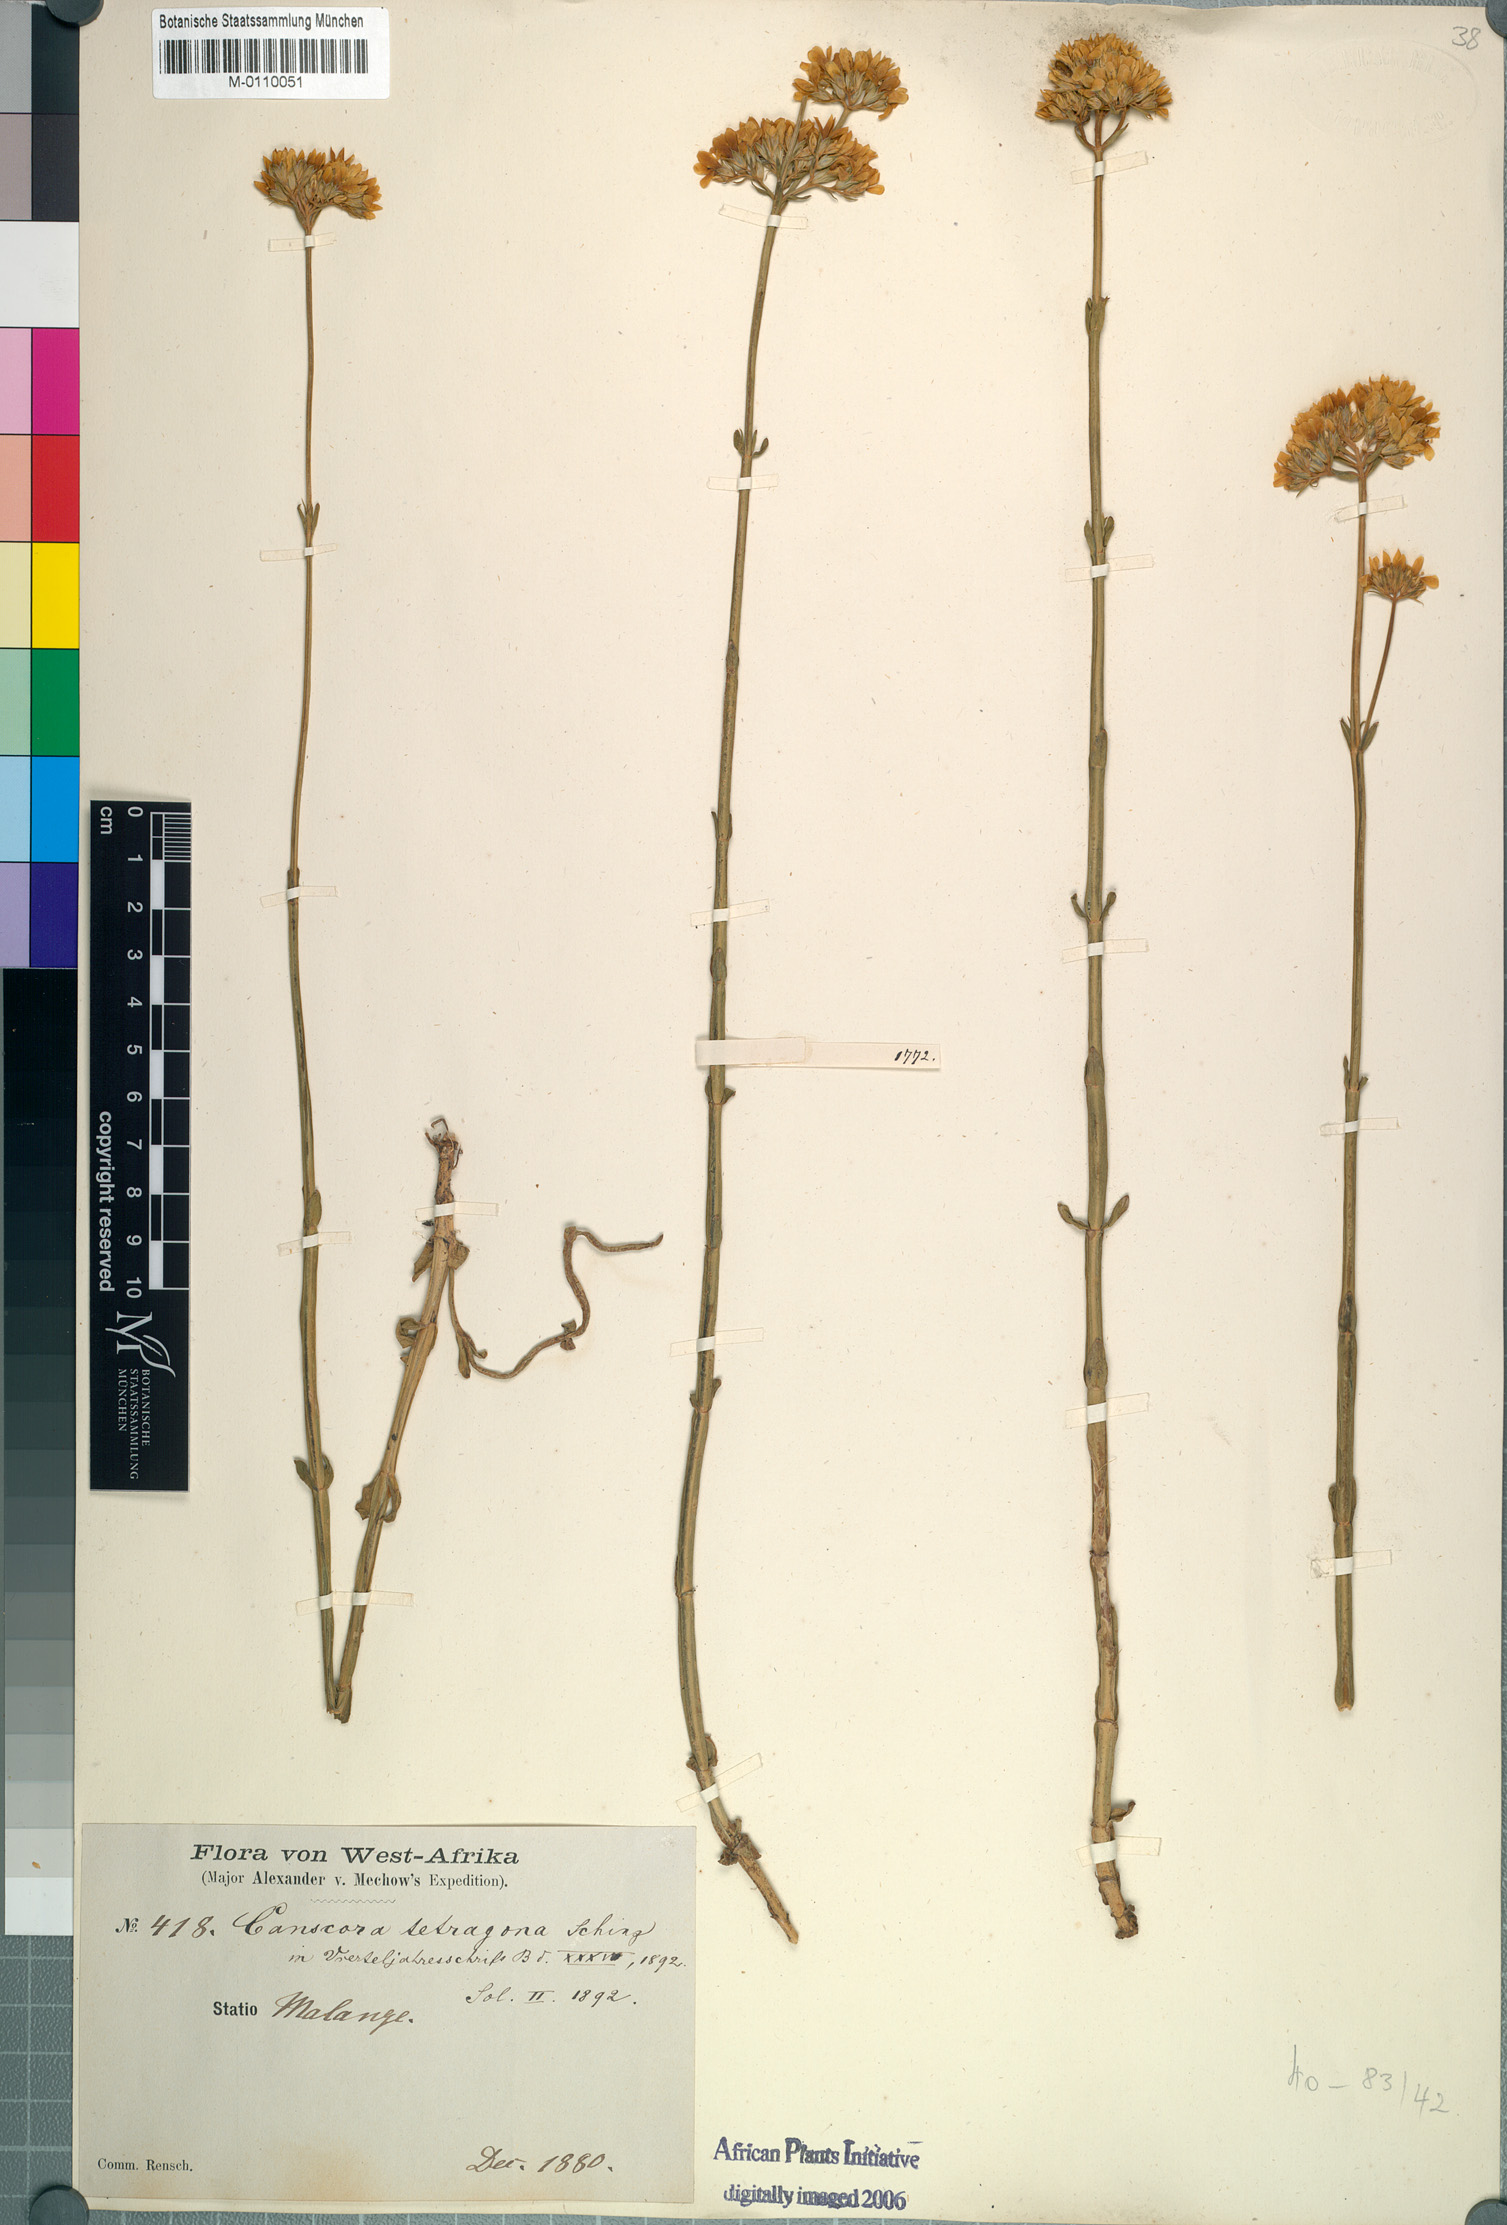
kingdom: Plantae
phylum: Tracheophyta
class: Magnoliopsida
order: Gentianales
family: Gentianaceae
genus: Schinziella
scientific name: Schinziella tetragona
